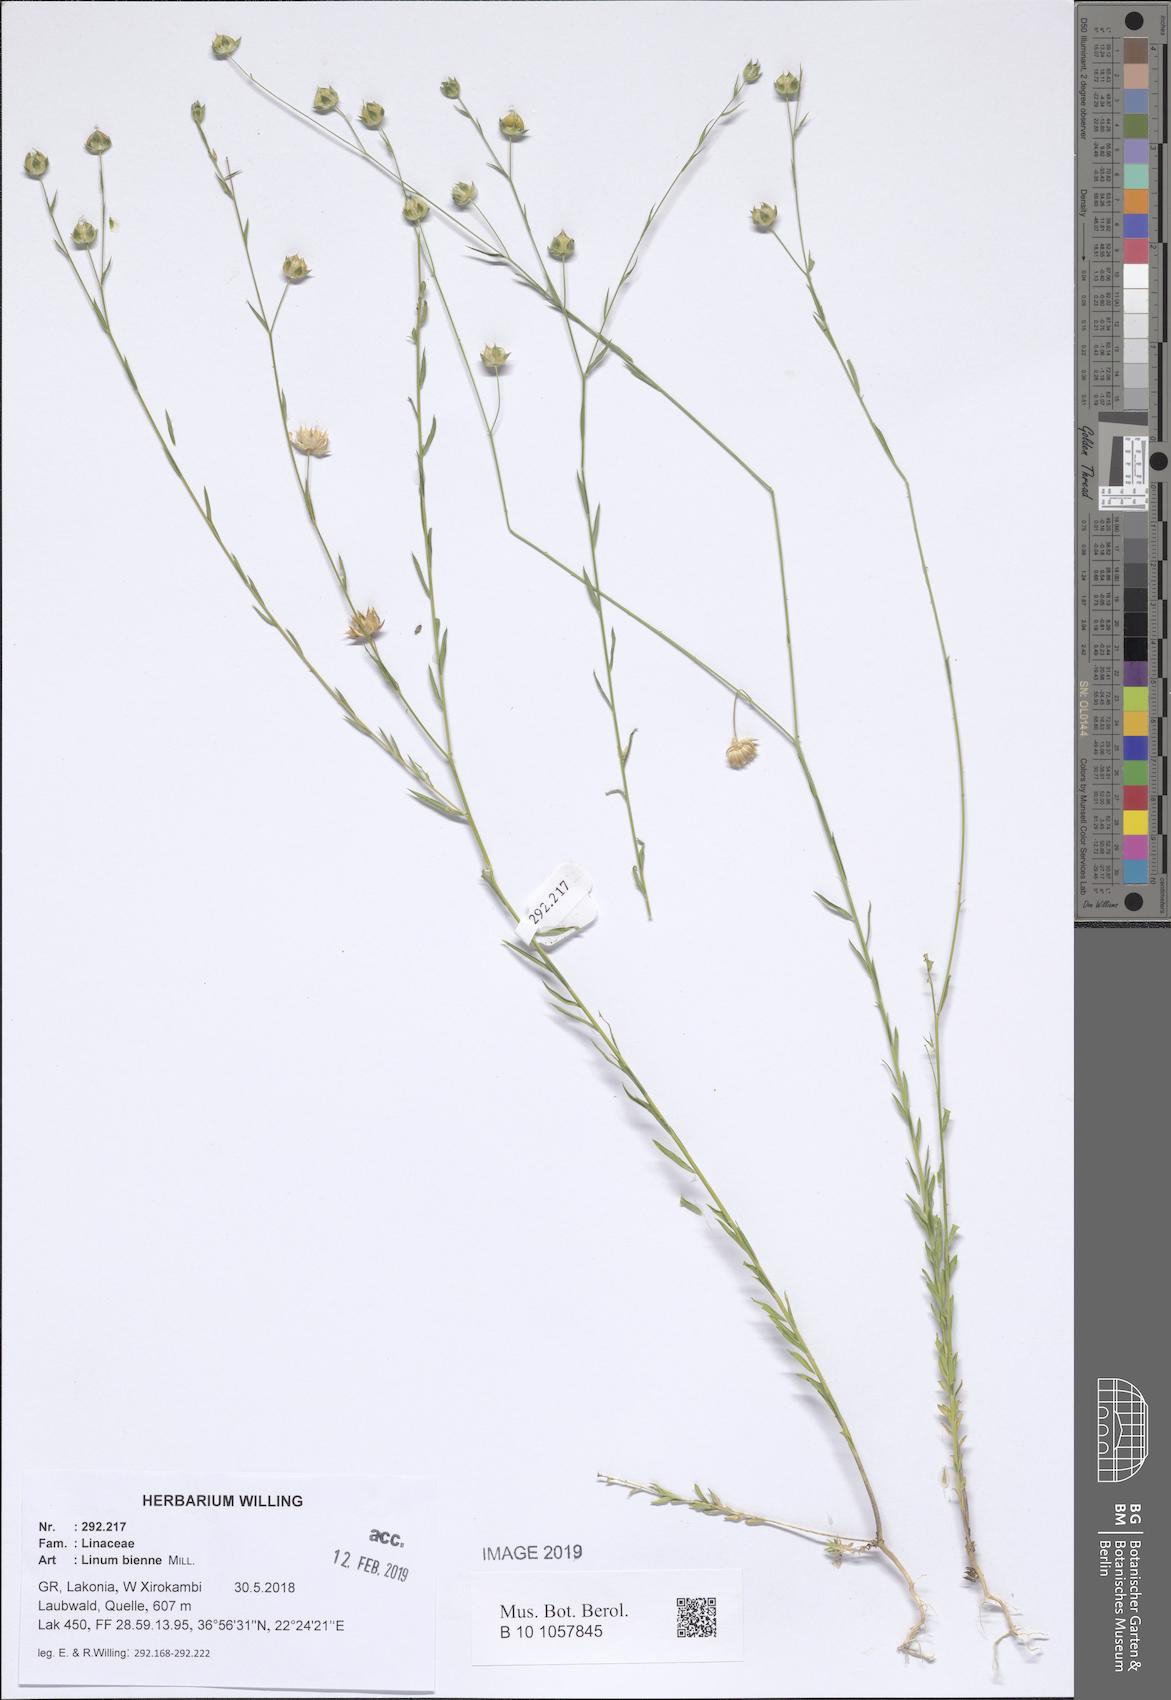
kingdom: Plantae
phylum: Tracheophyta
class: Magnoliopsida
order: Malpighiales
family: Linaceae
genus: Linum
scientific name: Linum bienne
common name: Pale flax
